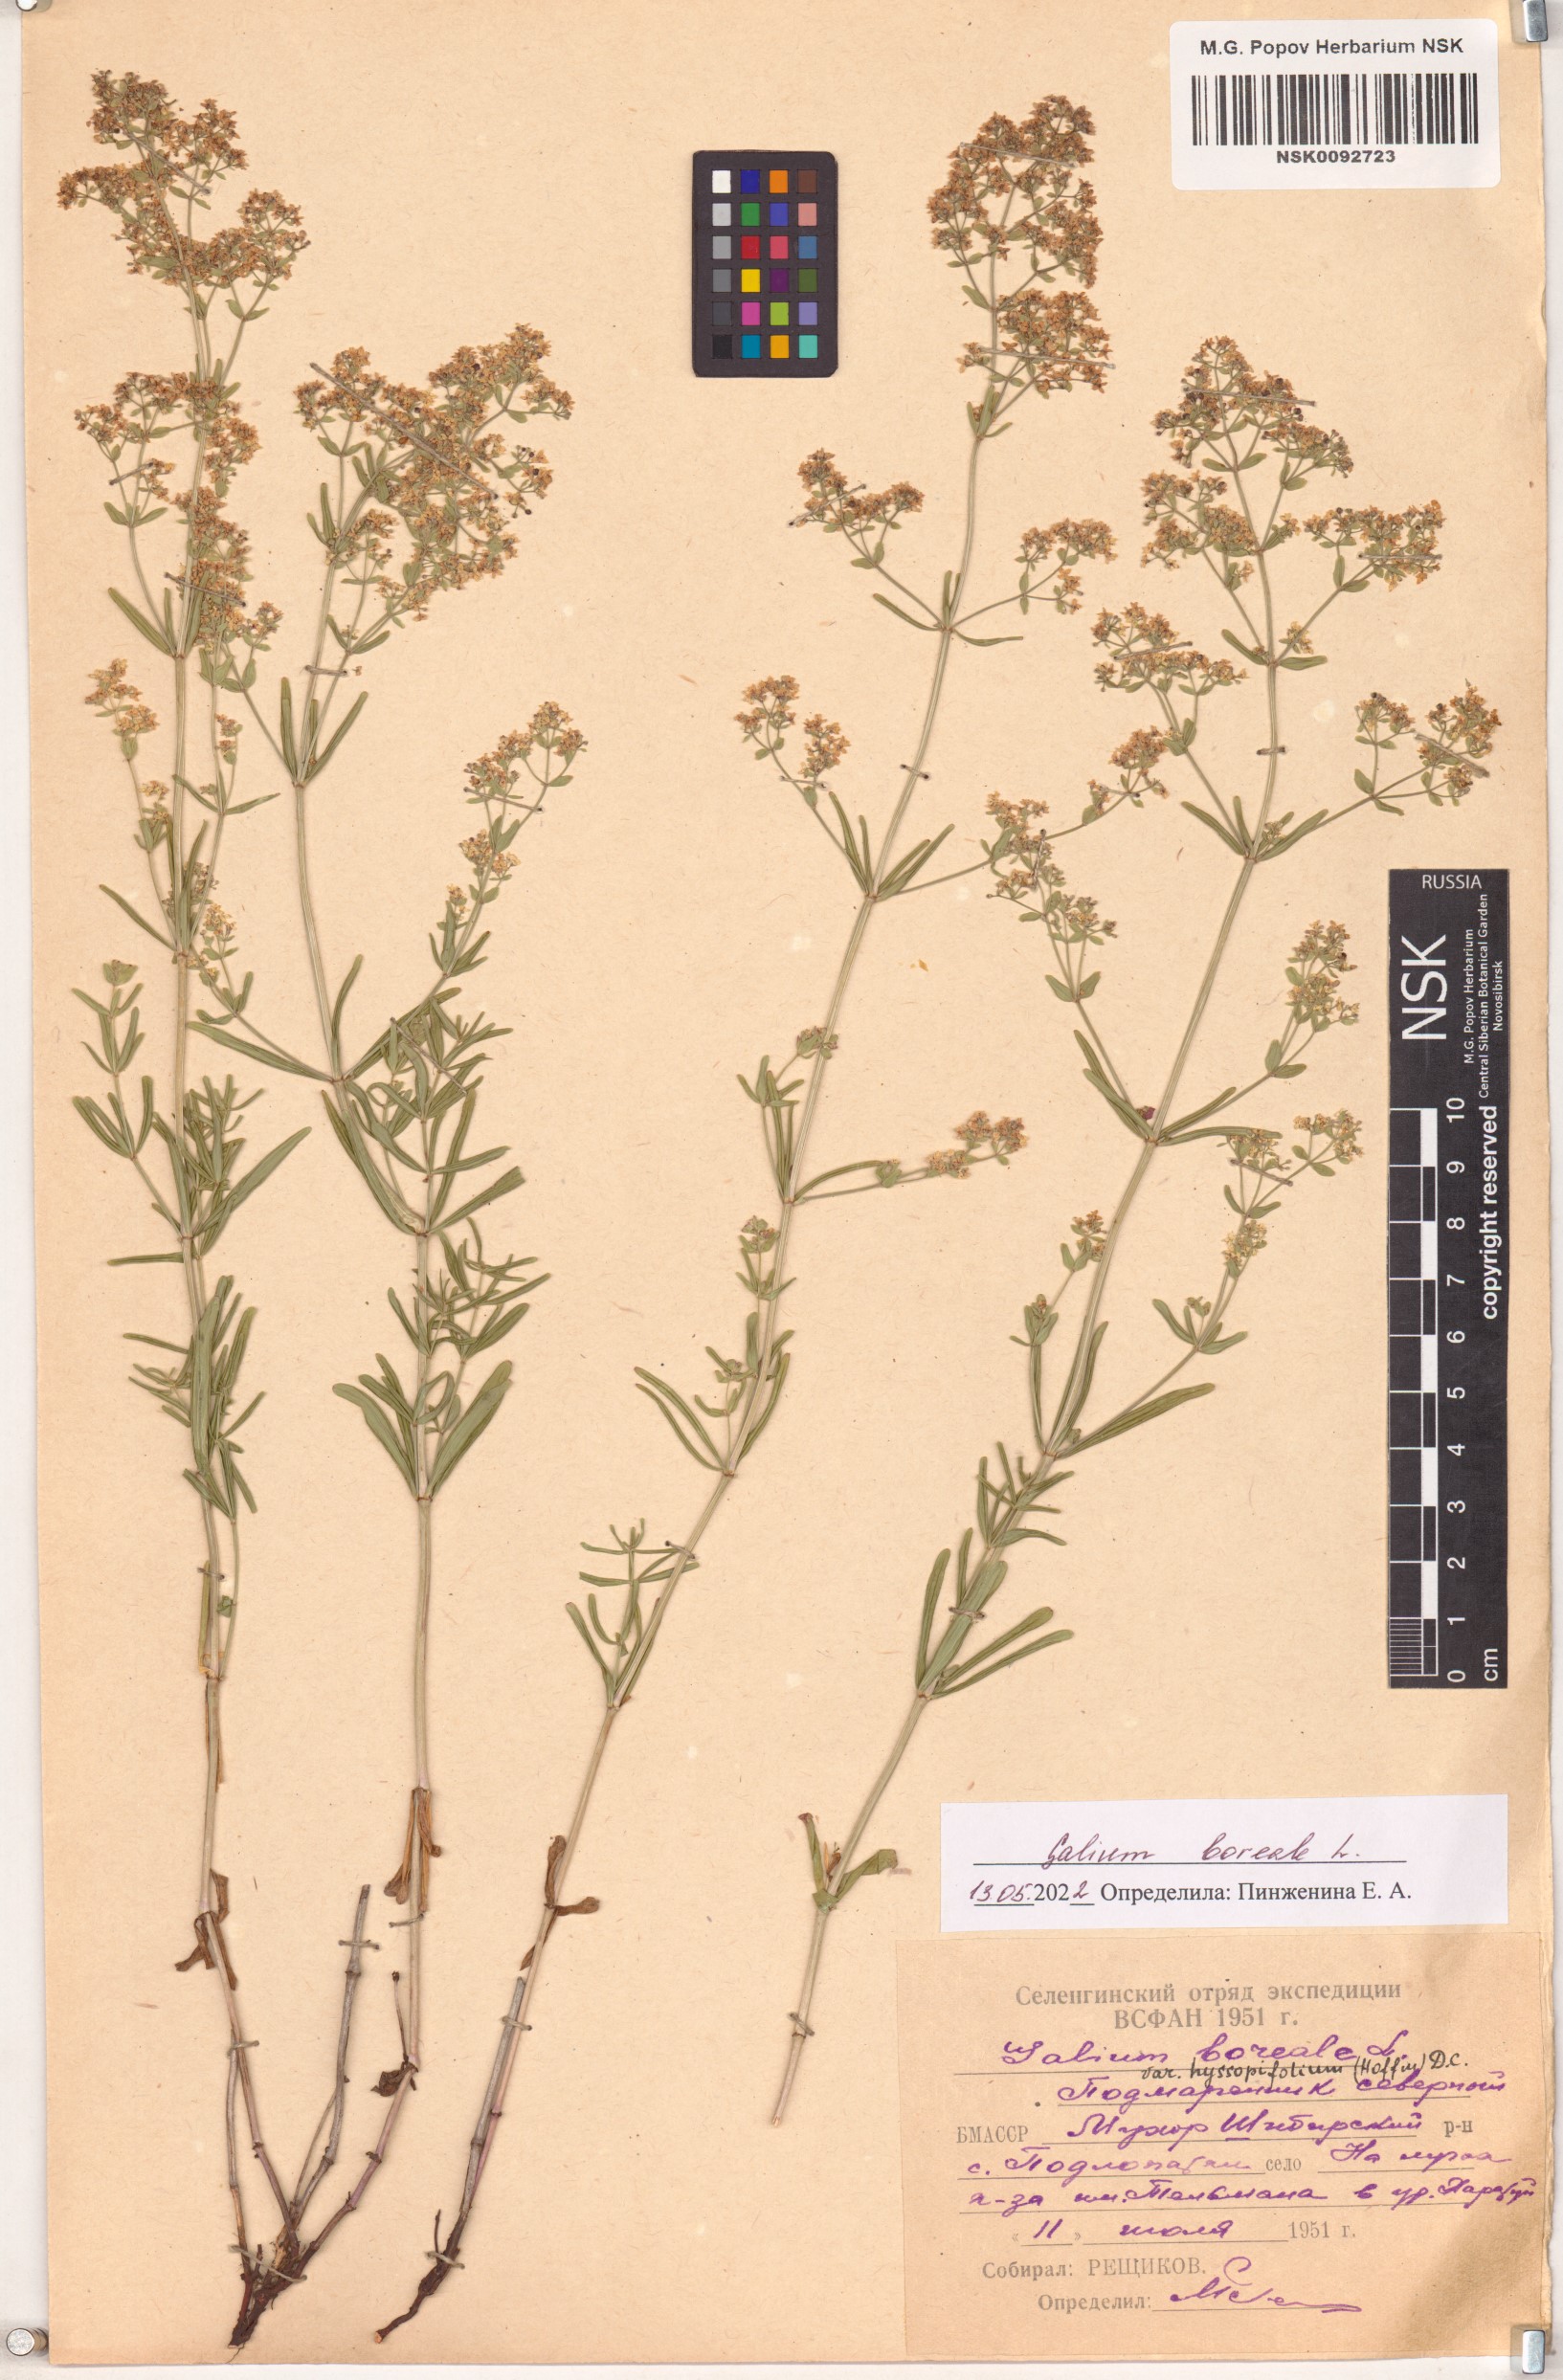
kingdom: Plantae
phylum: Tracheophyta
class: Magnoliopsida
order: Gentianales
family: Rubiaceae
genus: Galium
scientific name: Galium boreale
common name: Northern bedstraw
